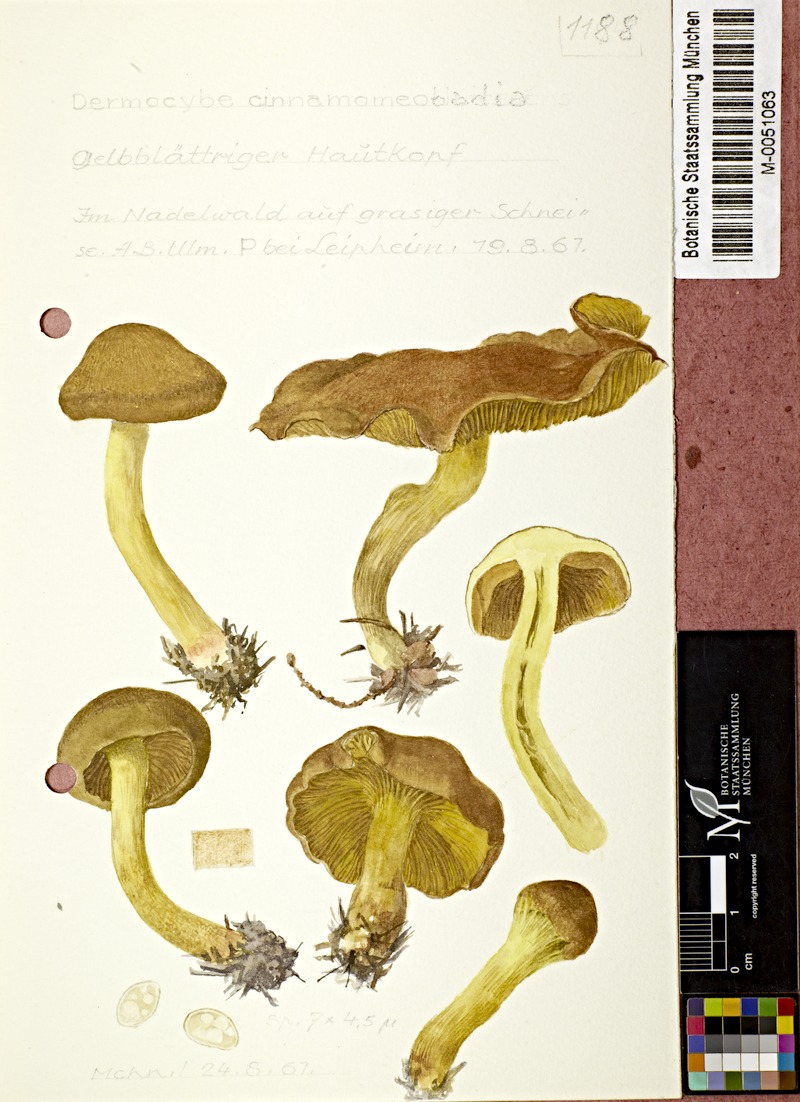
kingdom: Fungi
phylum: Basidiomycota
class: Agaricomycetes
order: Agaricales
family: Cortinariaceae
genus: Cortinarius
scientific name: Cortinarius croceus
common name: Saffron webcap
